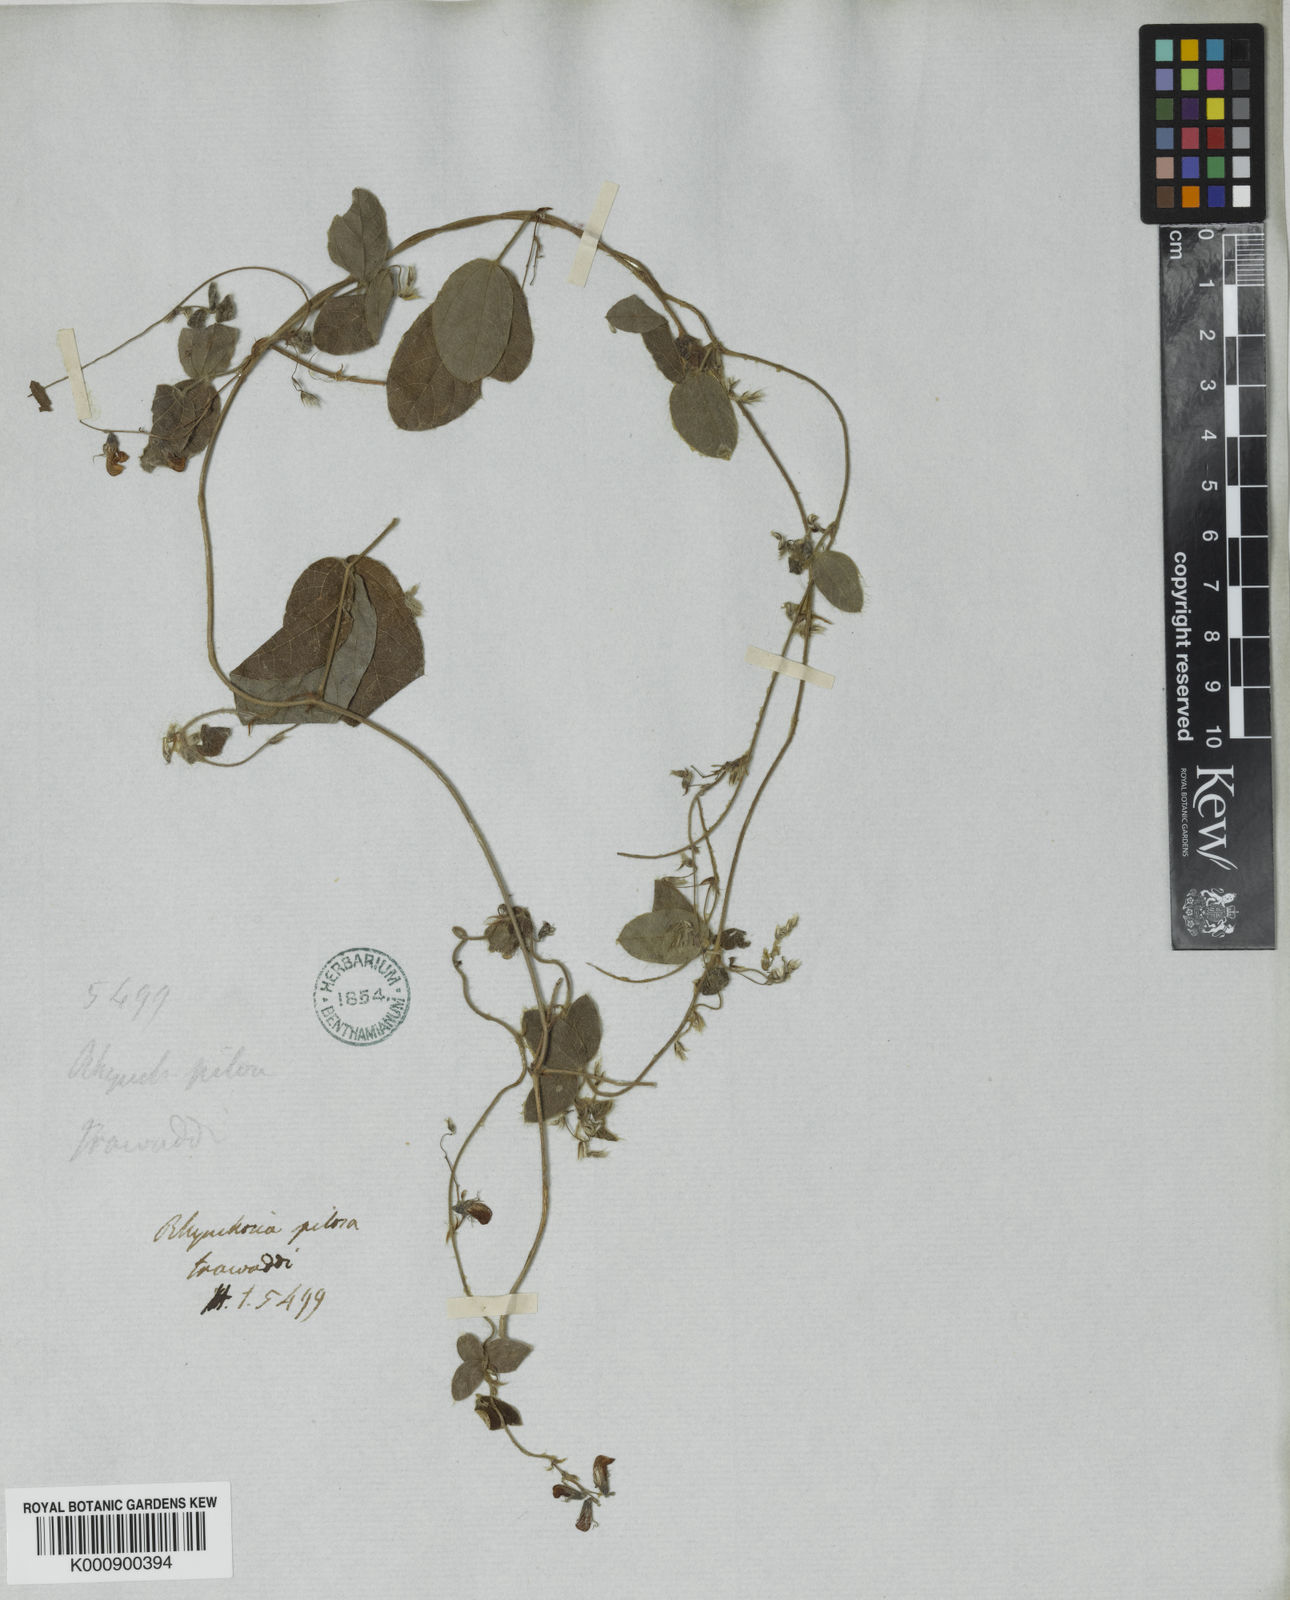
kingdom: Plantae
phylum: Tracheophyta
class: Magnoliopsida
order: Fabales
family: Fabaceae
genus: Pseudarthria
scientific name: Pseudarthria viscida
